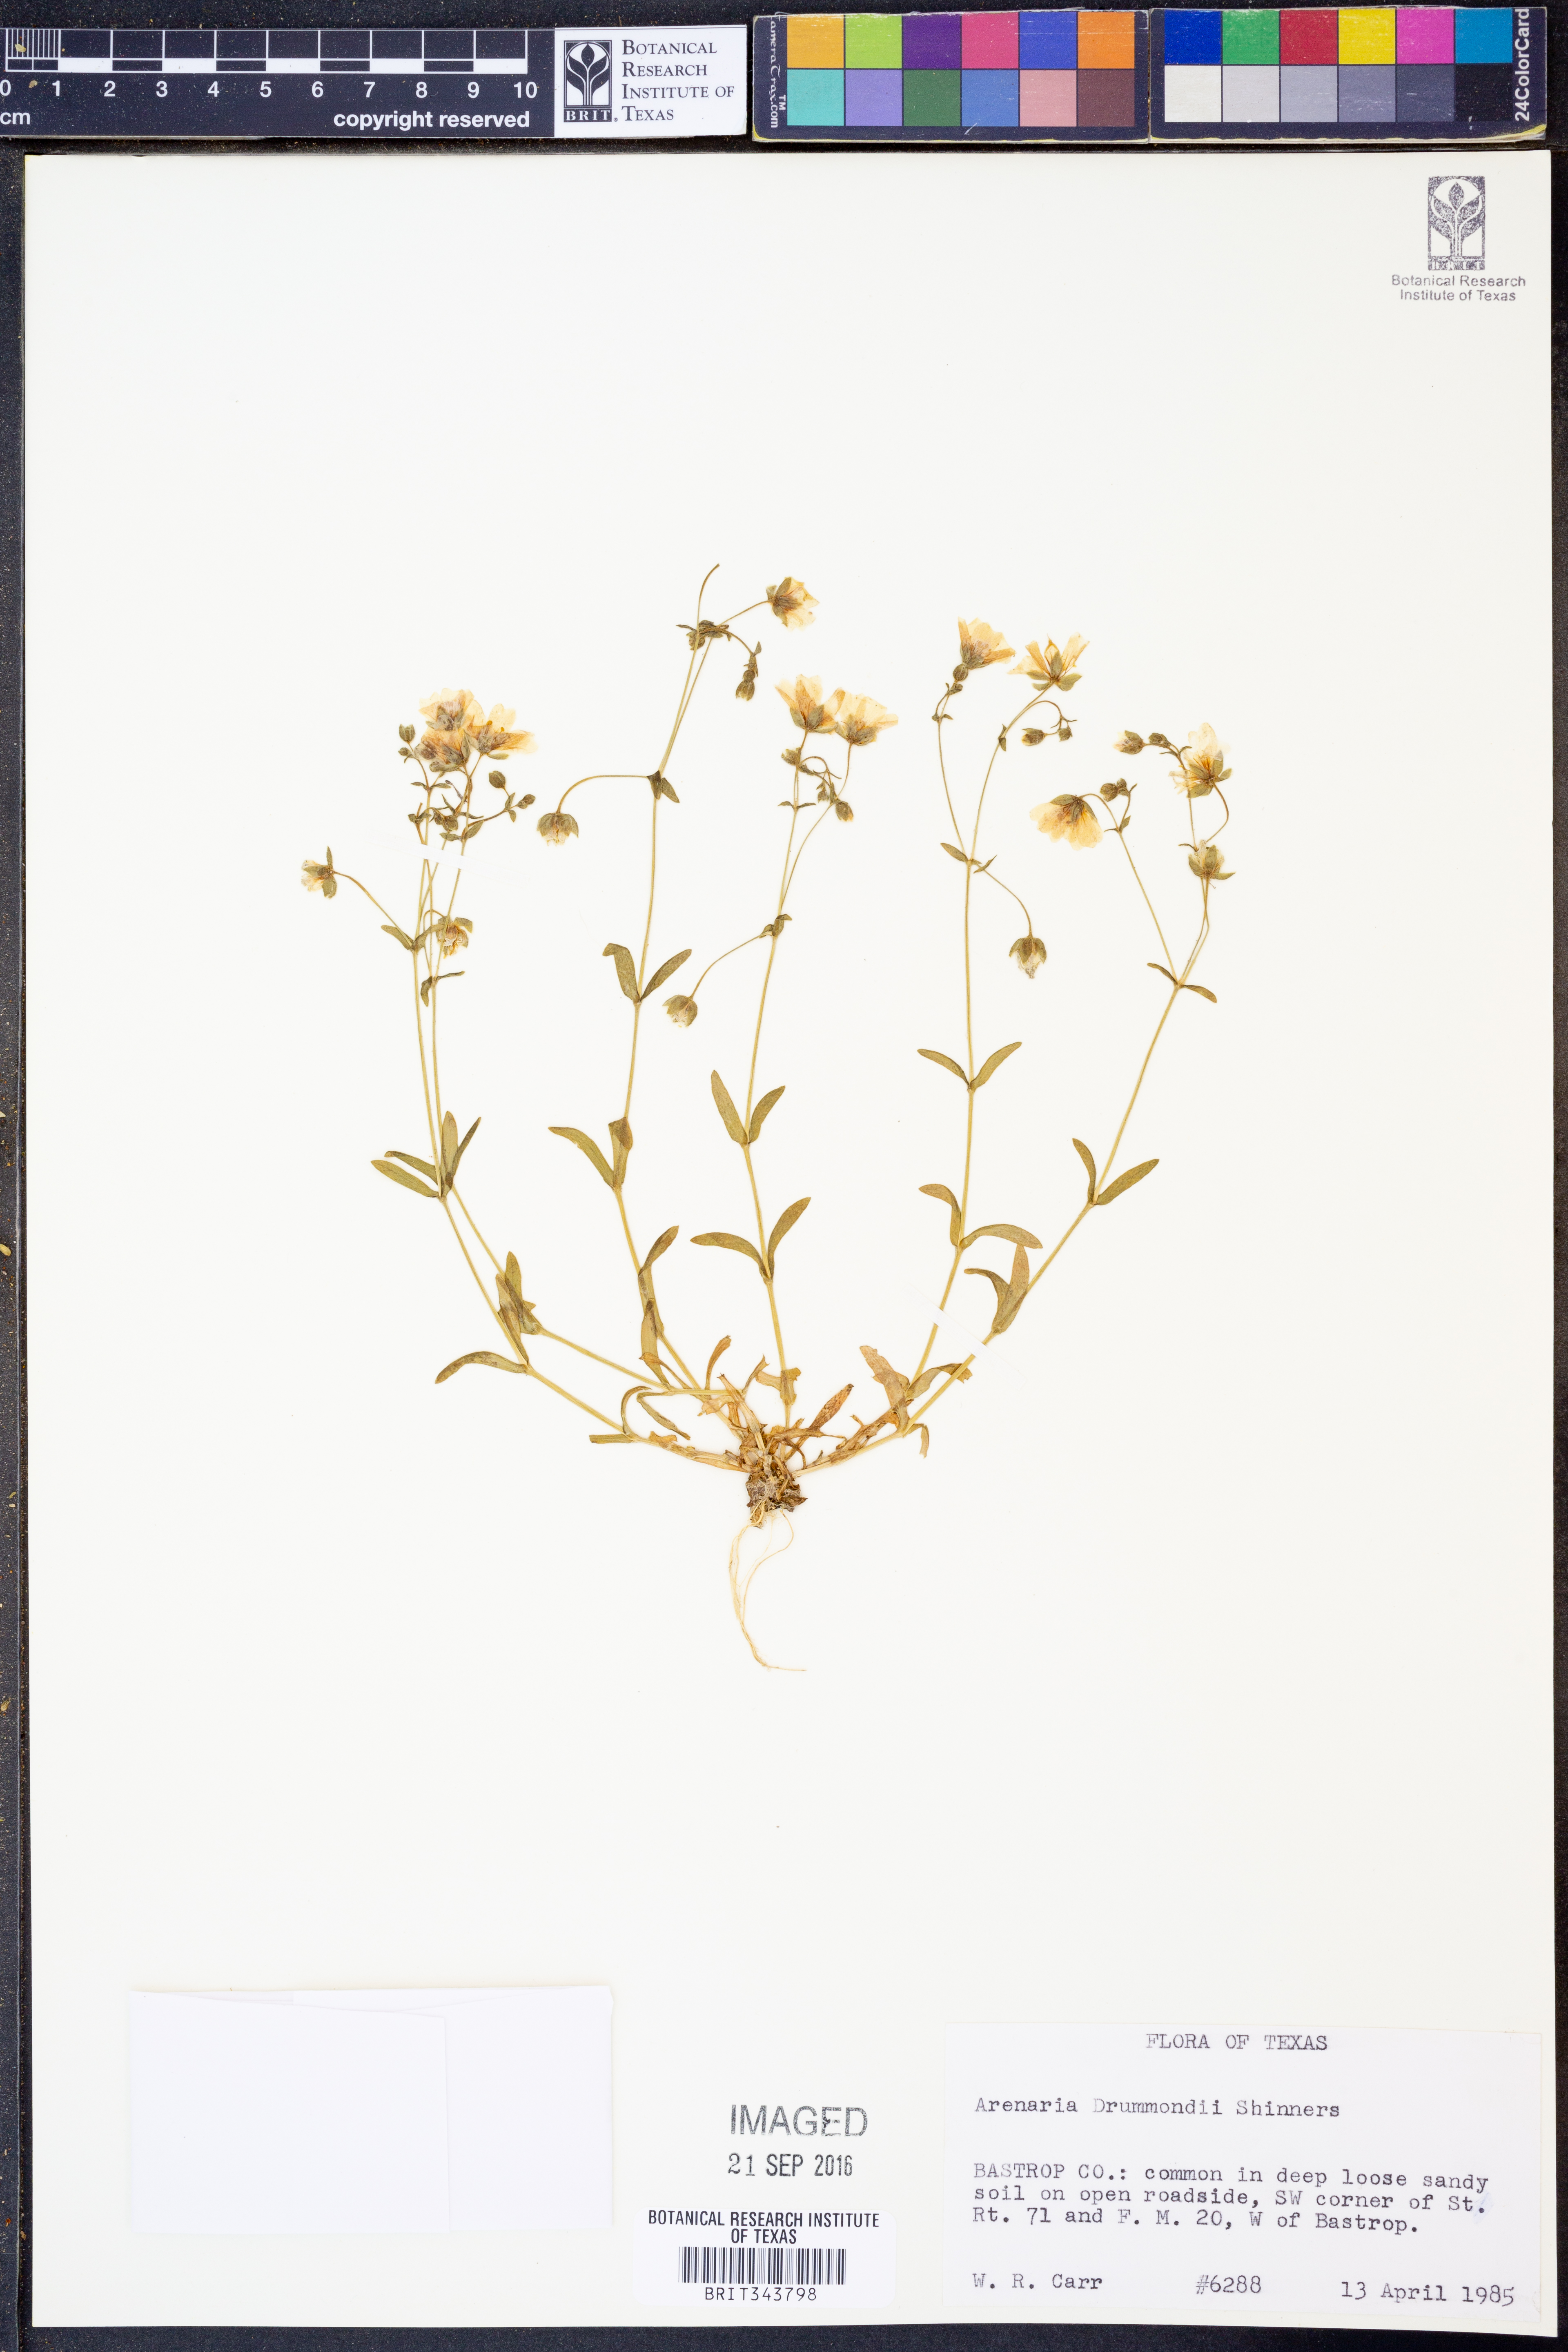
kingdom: Plantae
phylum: Tracheophyta
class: Magnoliopsida
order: Caryophyllales
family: Caryophyllaceae
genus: Geocarpon
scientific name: Geocarpon nuttallii
